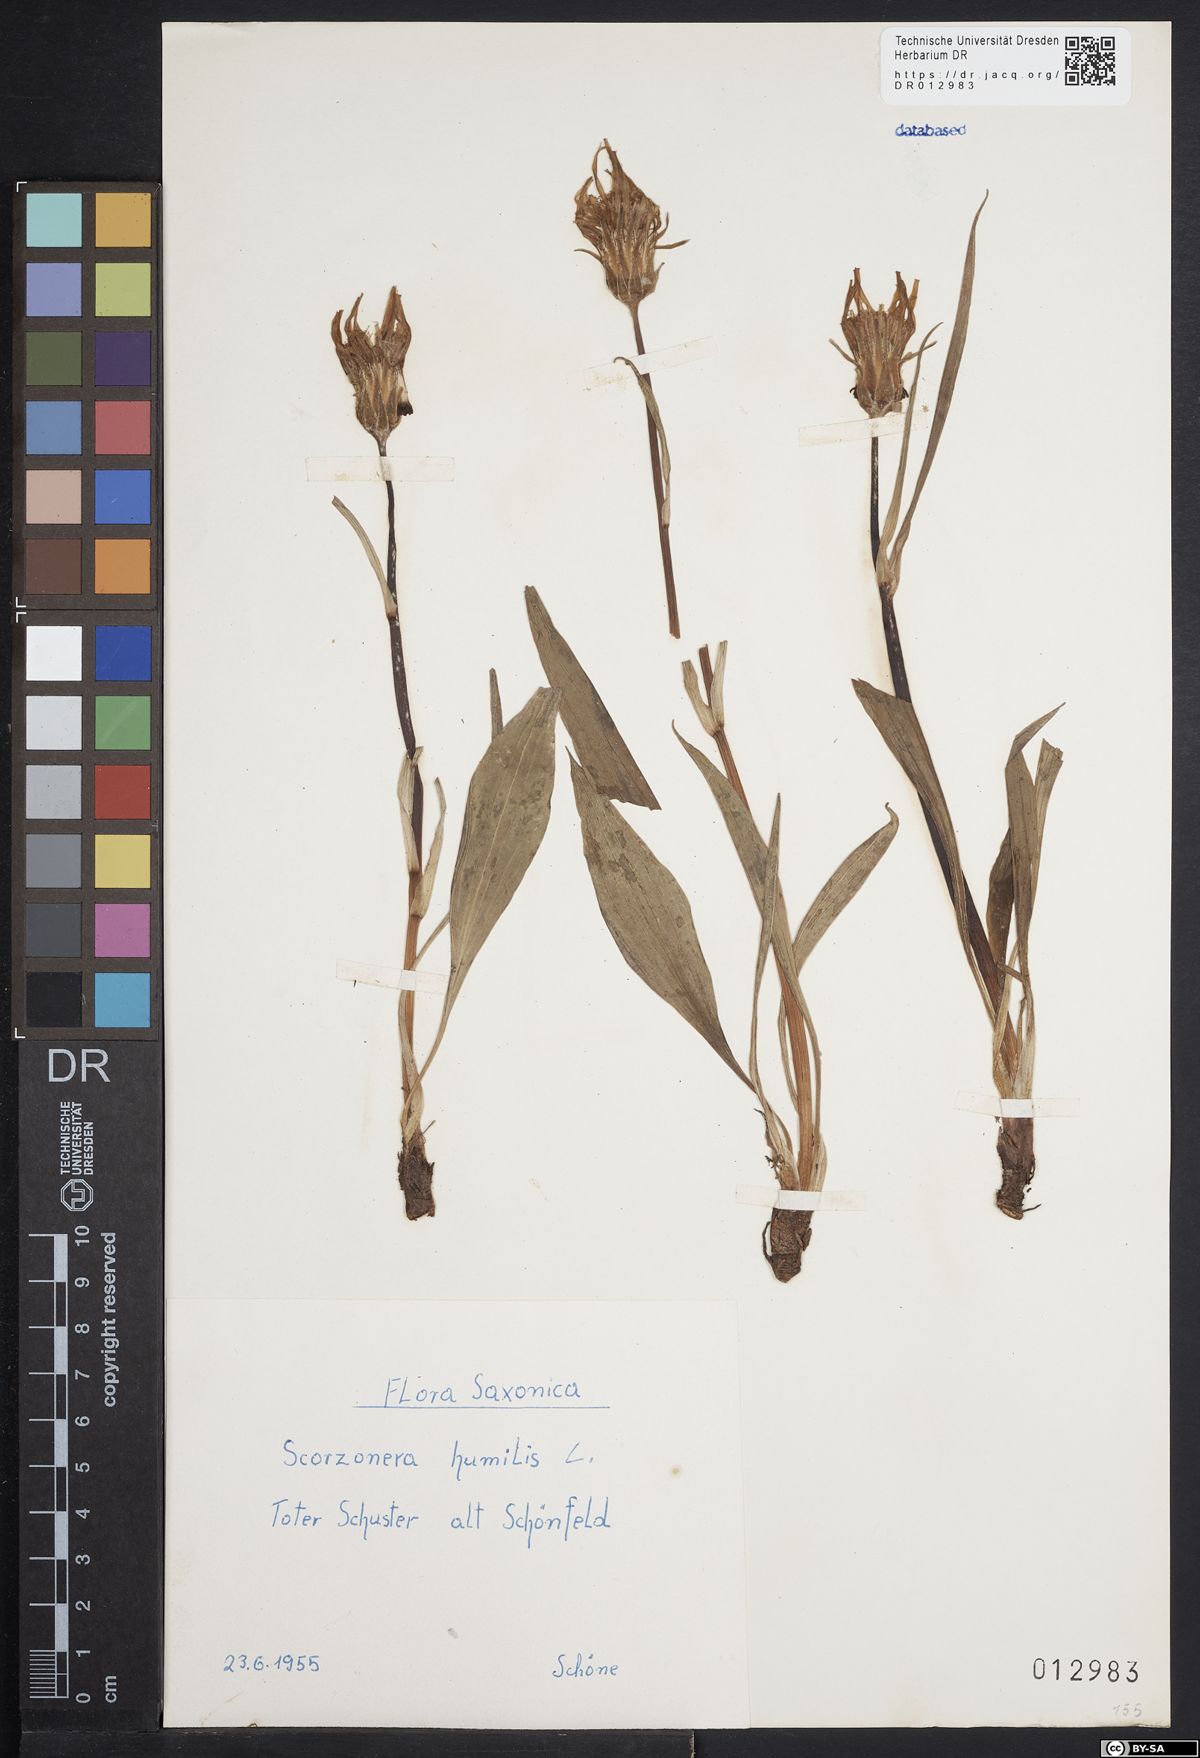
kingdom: Plantae
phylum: Tracheophyta
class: Magnoliopsida
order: Asterales
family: Asteraceae
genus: Scorzonera
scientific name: Scorzonera humilis
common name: Viper's-grass
